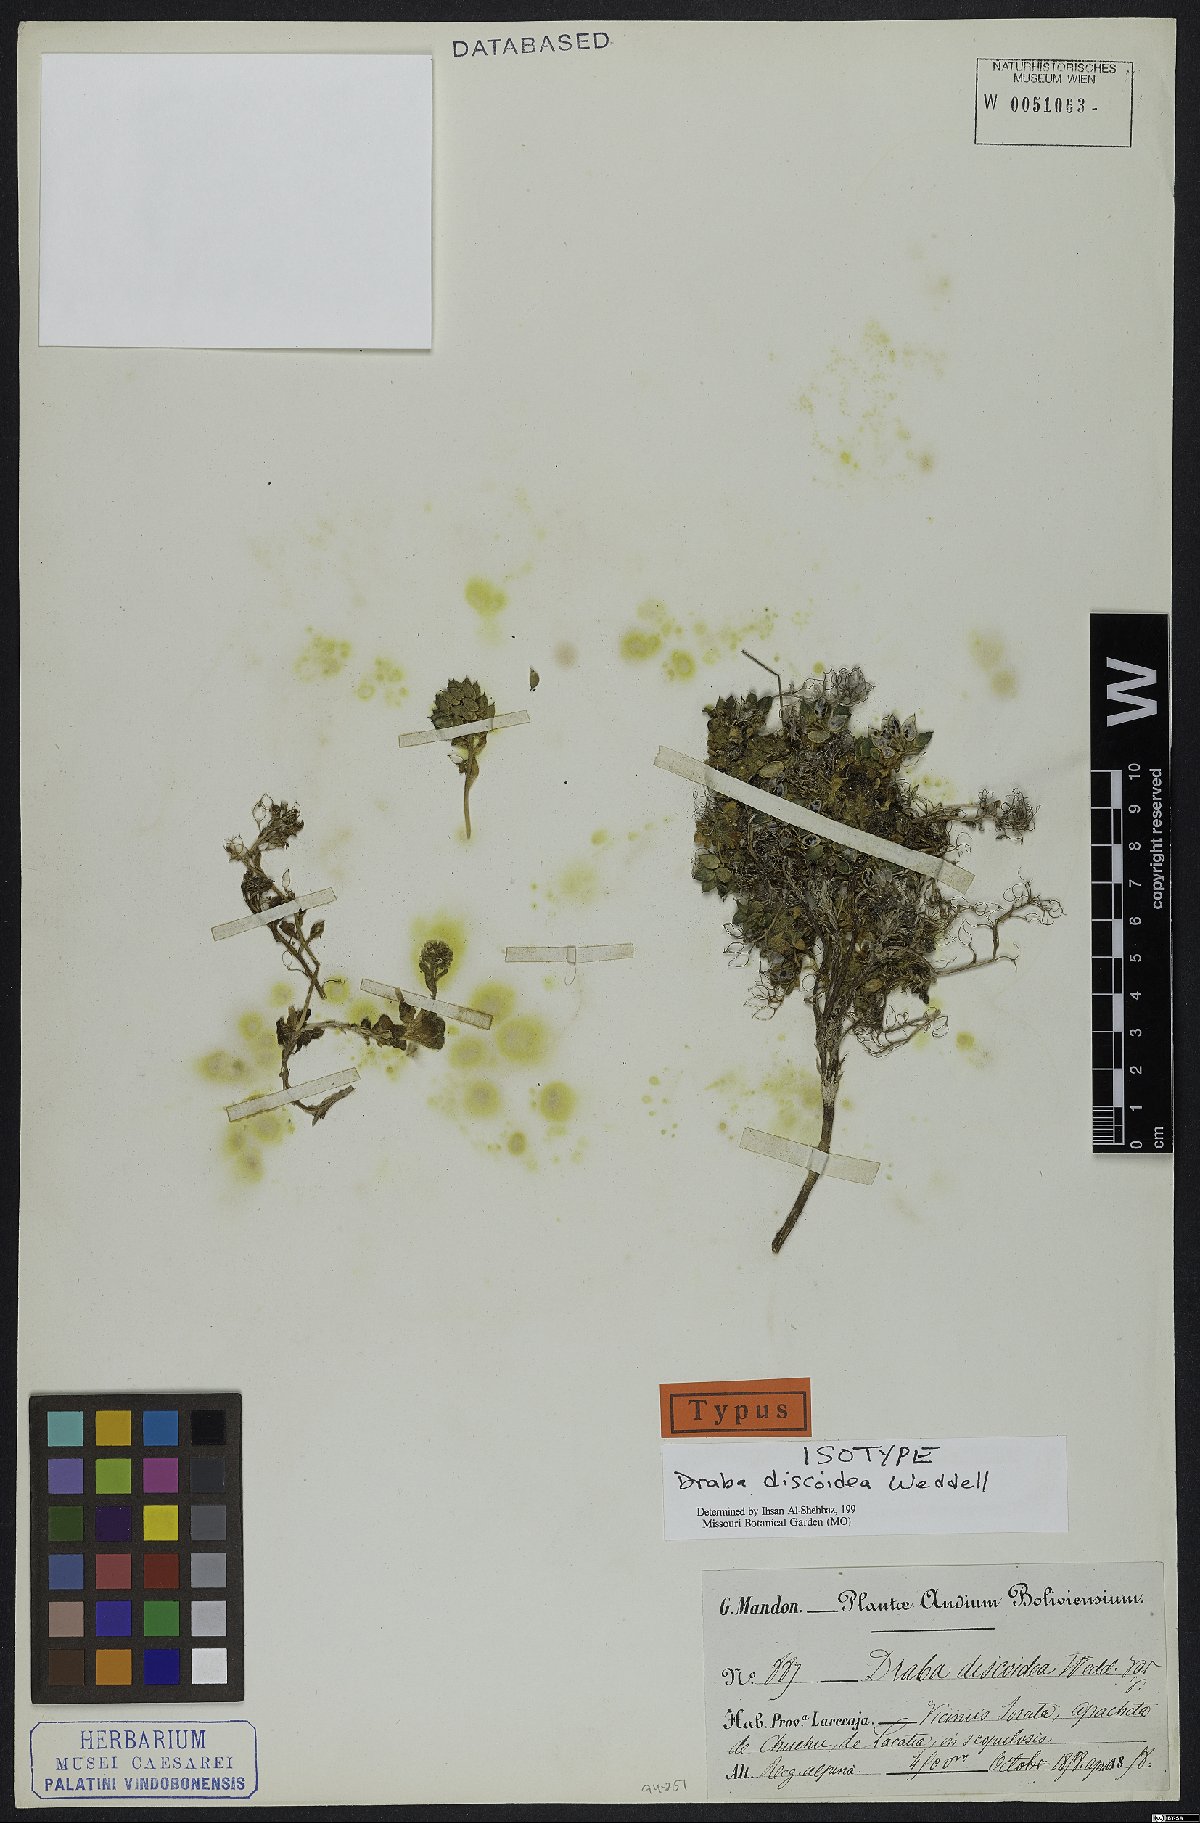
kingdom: Plantae
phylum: Tracheophyta
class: Magnoliopsida
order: Brassicales
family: Brassicaceae
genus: Draba
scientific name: Draba discoidea
